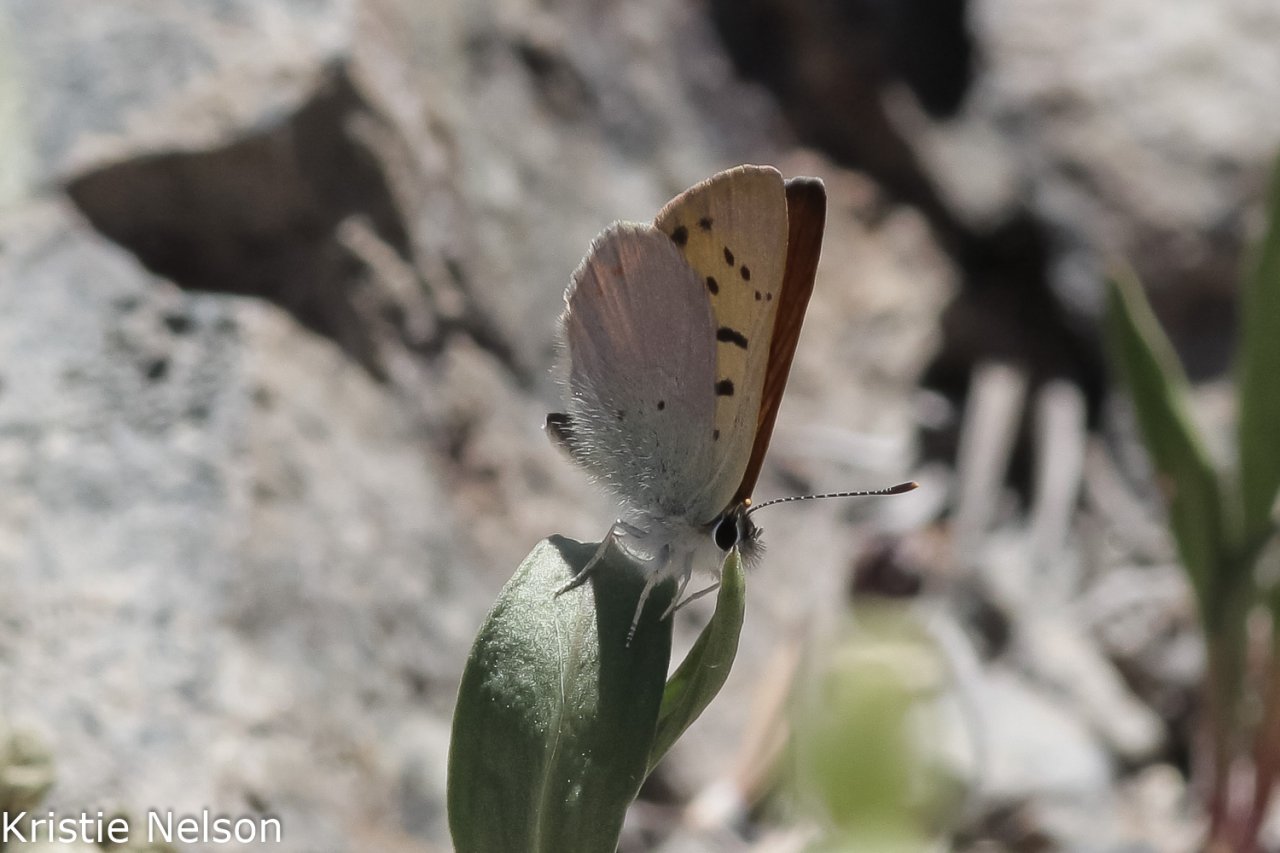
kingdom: Animalia
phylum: Arthropoda
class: Insecta
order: Lepidoptera
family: Lycaenidae
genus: Lycaena
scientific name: Lycaena nivalis
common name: Lilac-bordered Copper
